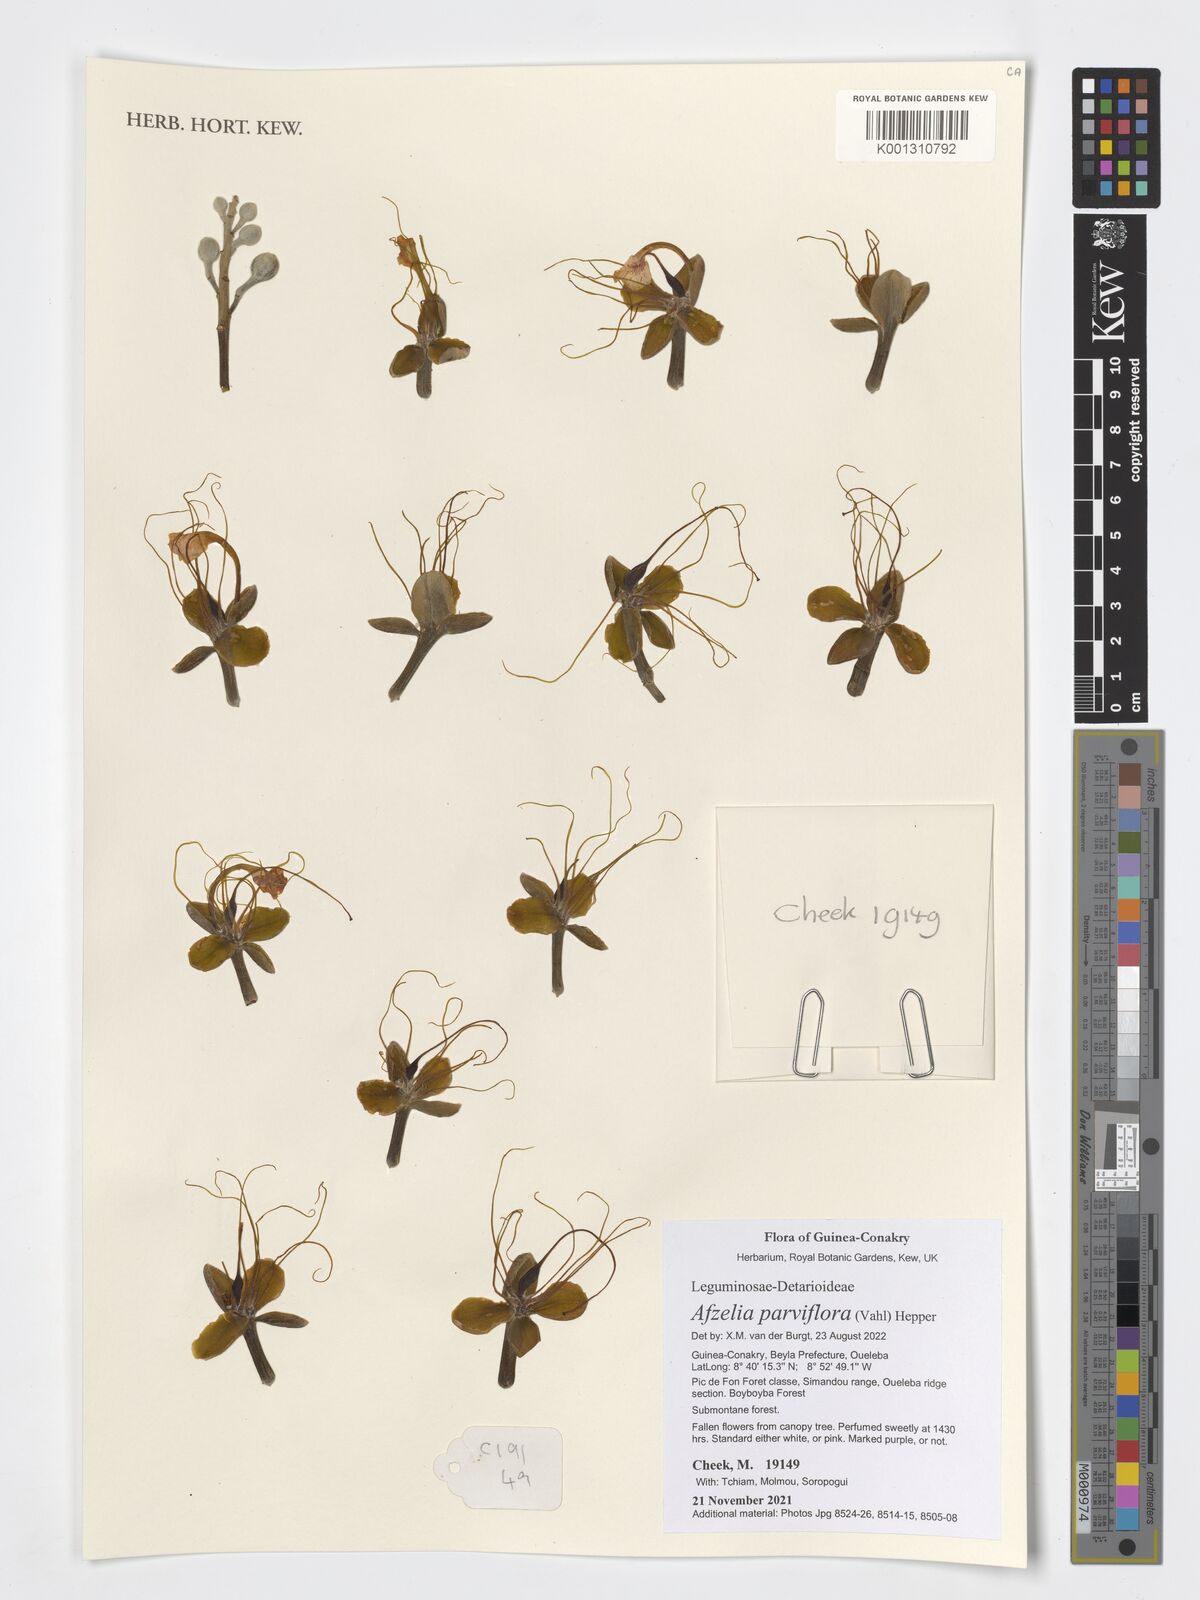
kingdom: Plantae
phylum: Tracheophyta
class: Magnoliopsida
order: Fabales
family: Fabaceae
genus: Afzelia
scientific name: Afzelia parviflora
